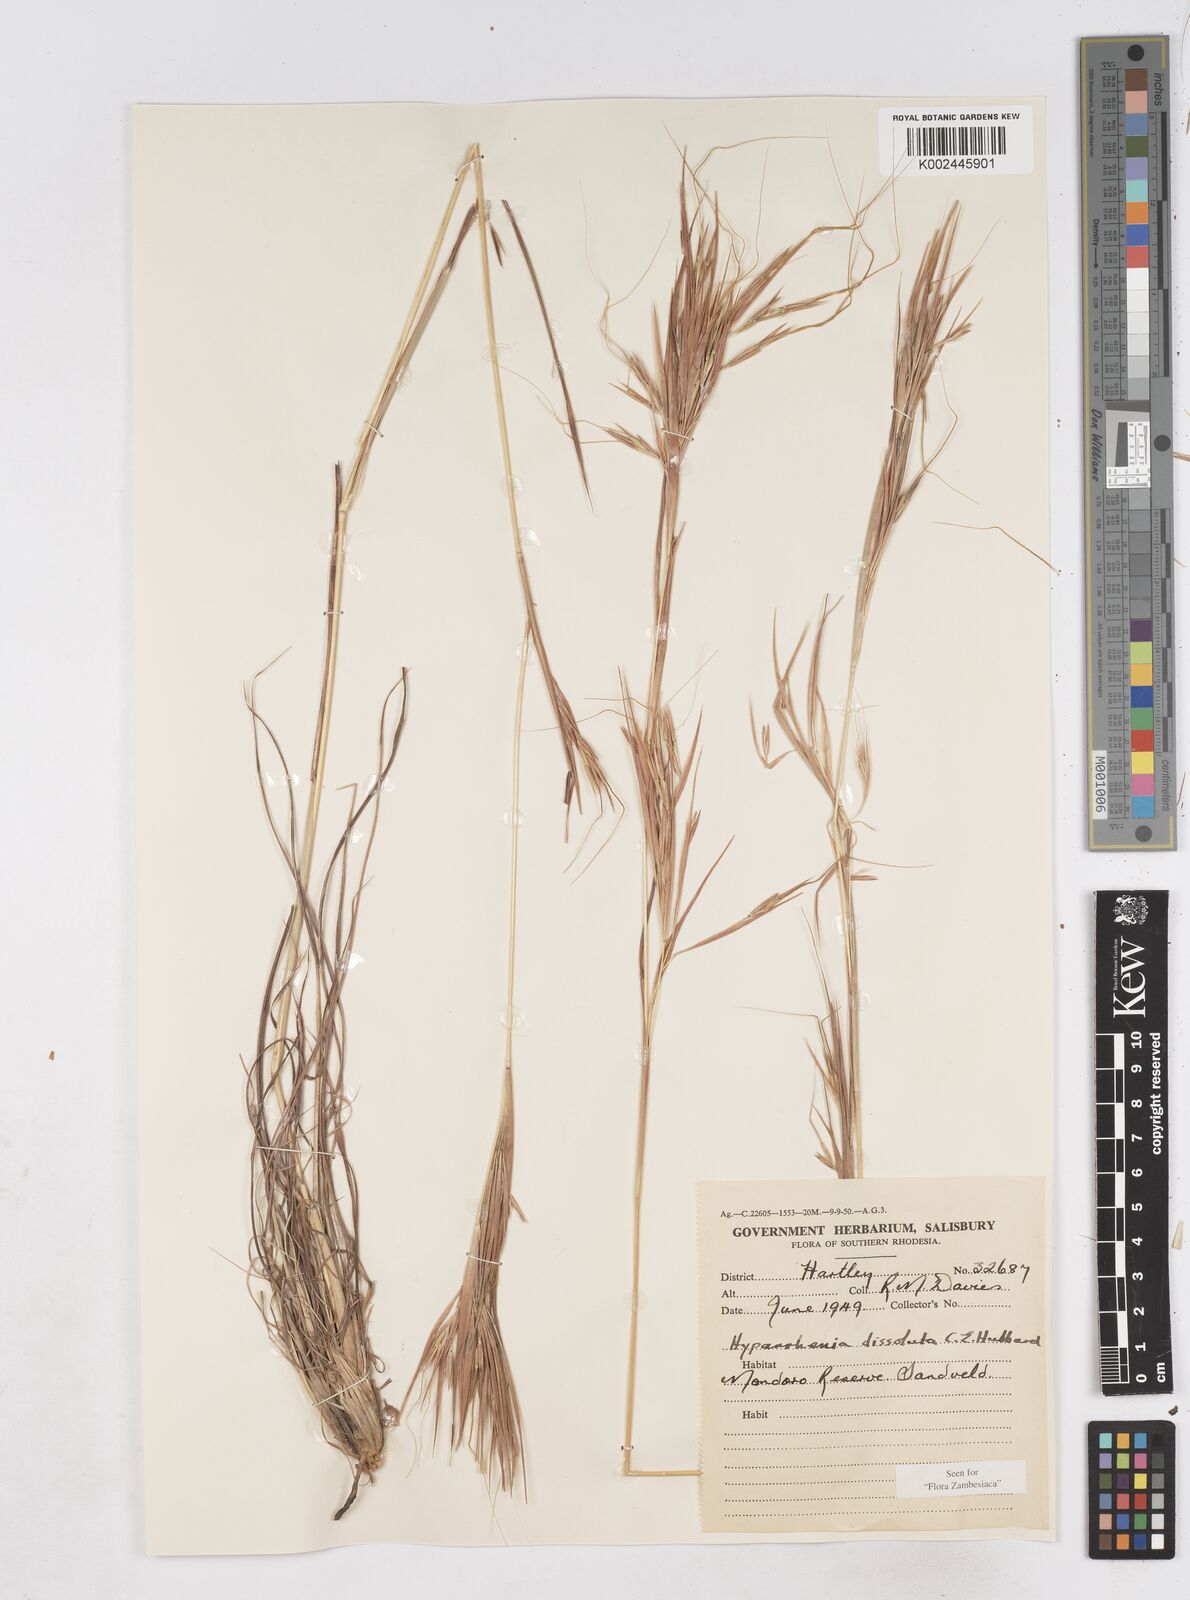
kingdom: Plantae
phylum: Tracheophyta
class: Liliopsida
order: Poales
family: Poaceae
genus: Hyperthelia
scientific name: Hyperthelia dissoluta
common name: Yellow thatching grass
